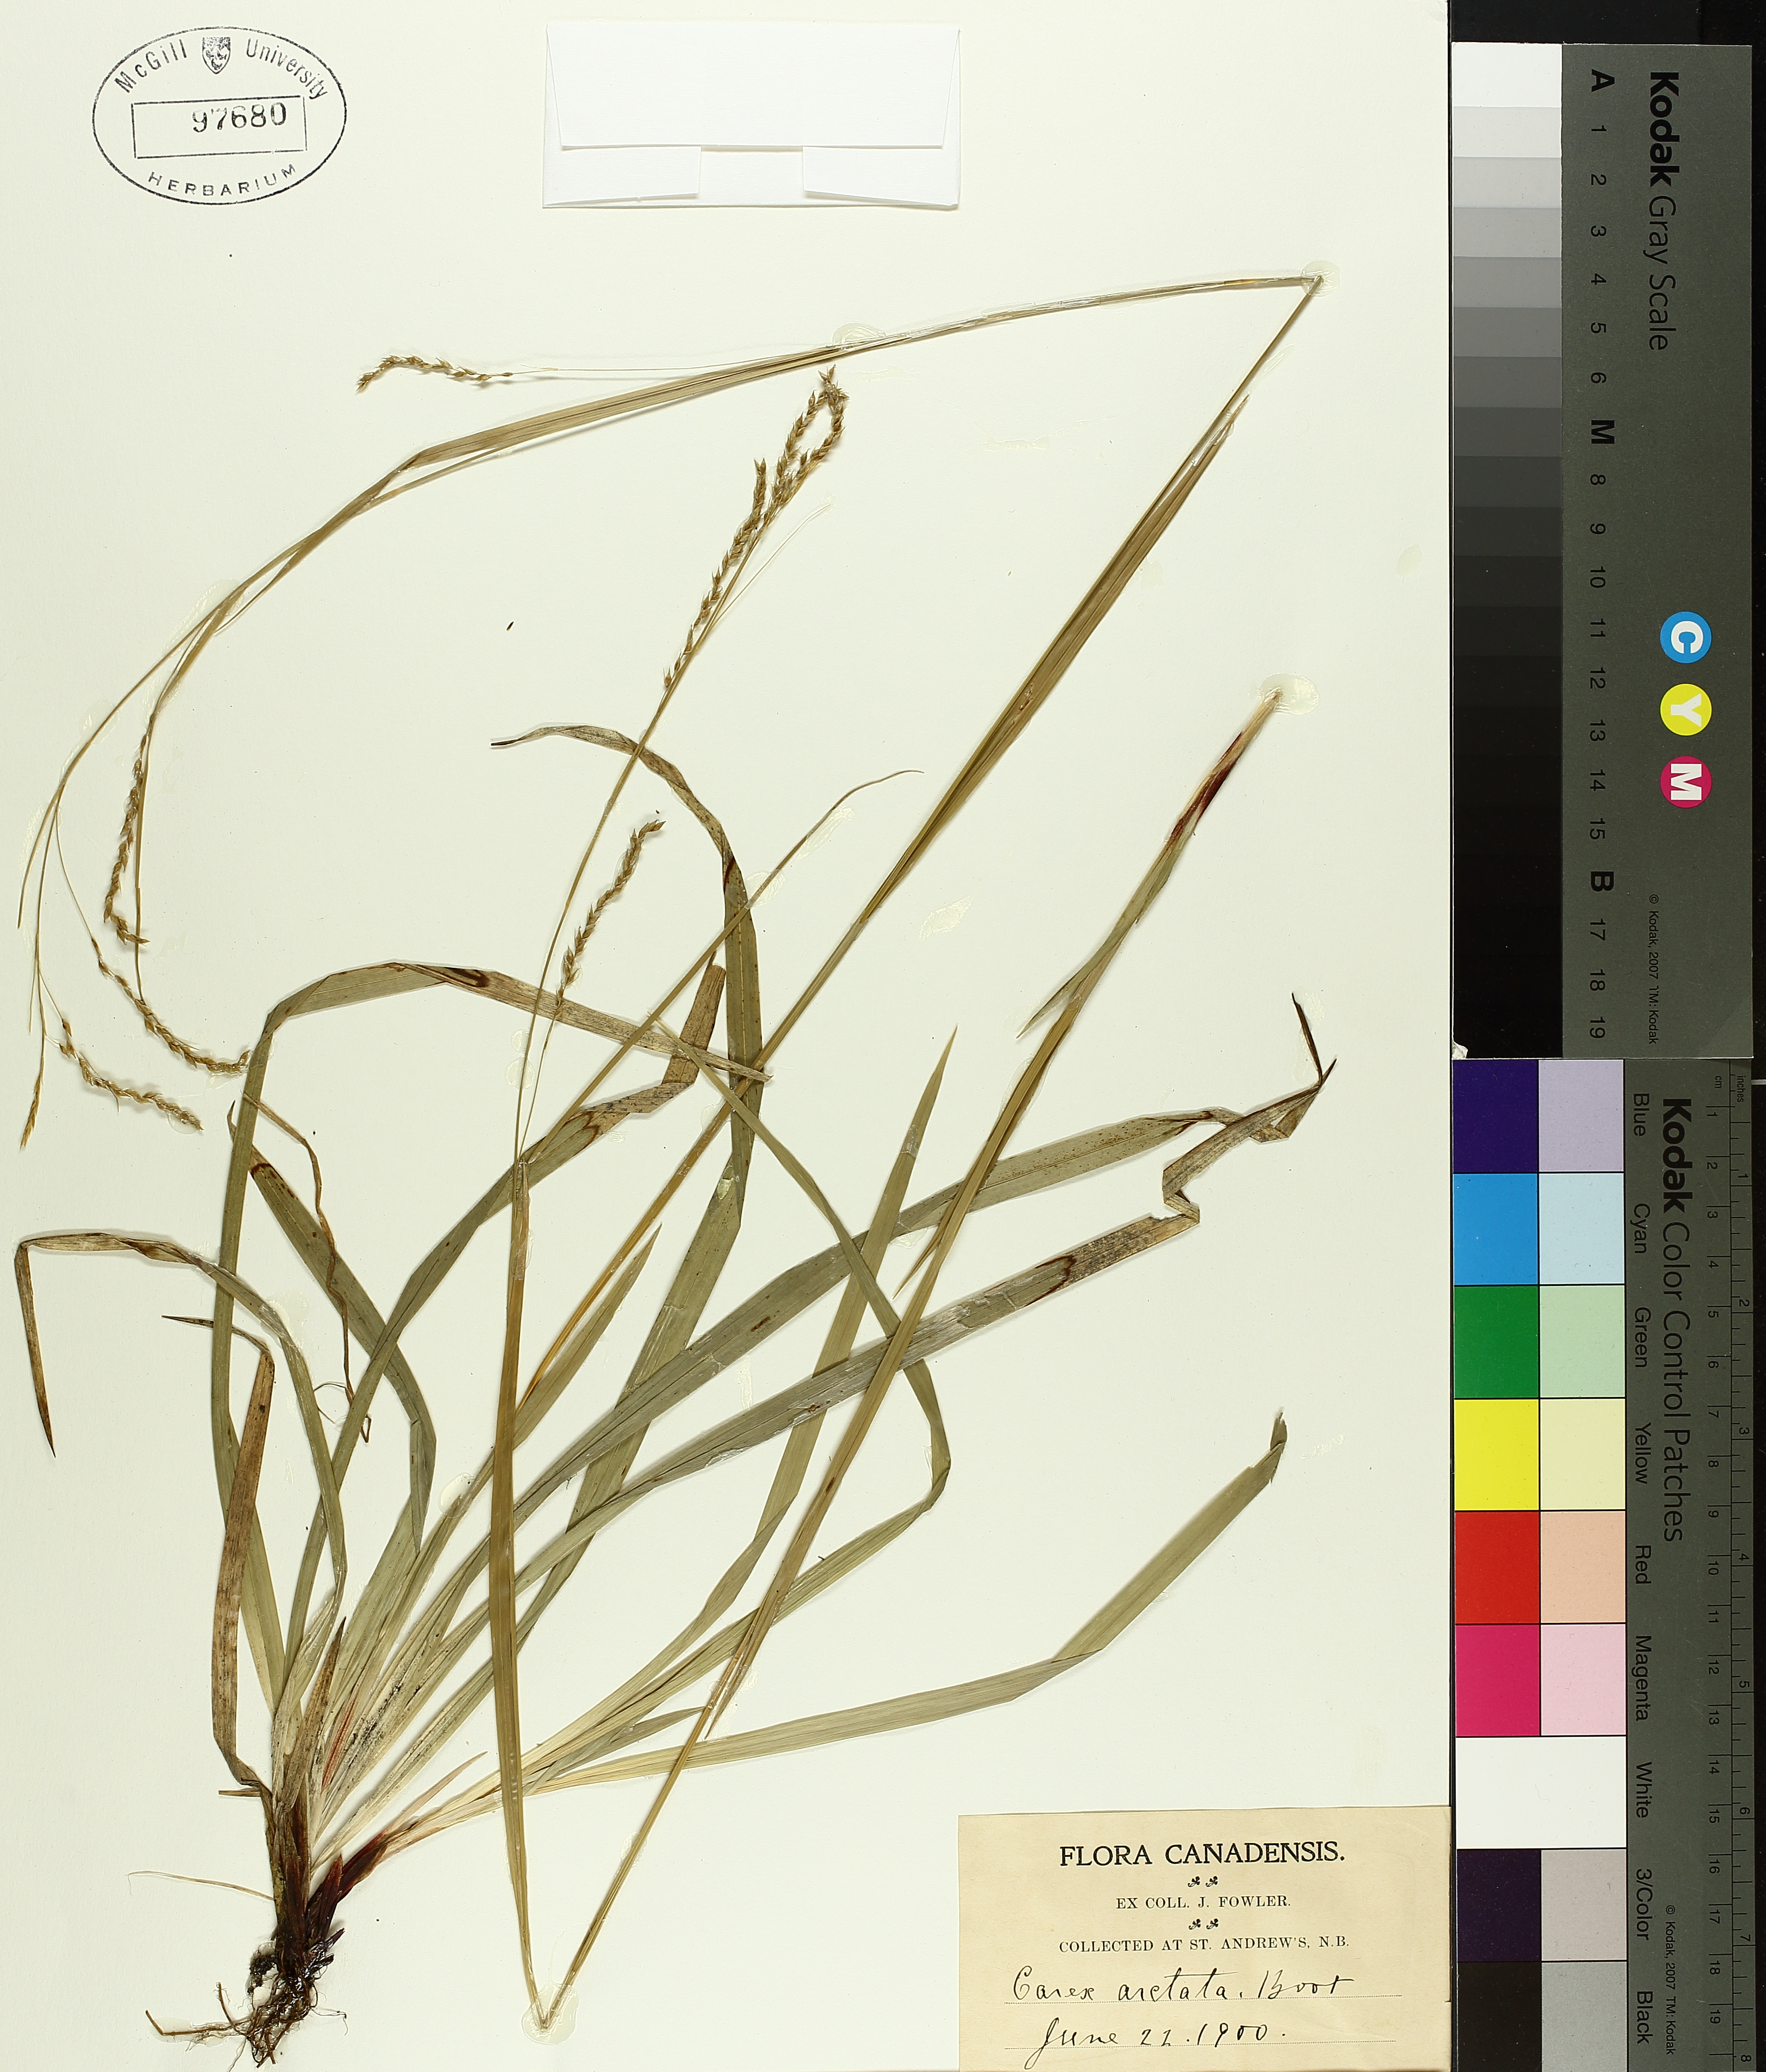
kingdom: Plantae
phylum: Tracheophyta
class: Liliopsida
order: Poales
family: Cyperaceae
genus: Carex
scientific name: Carex arctata
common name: Black sedge
